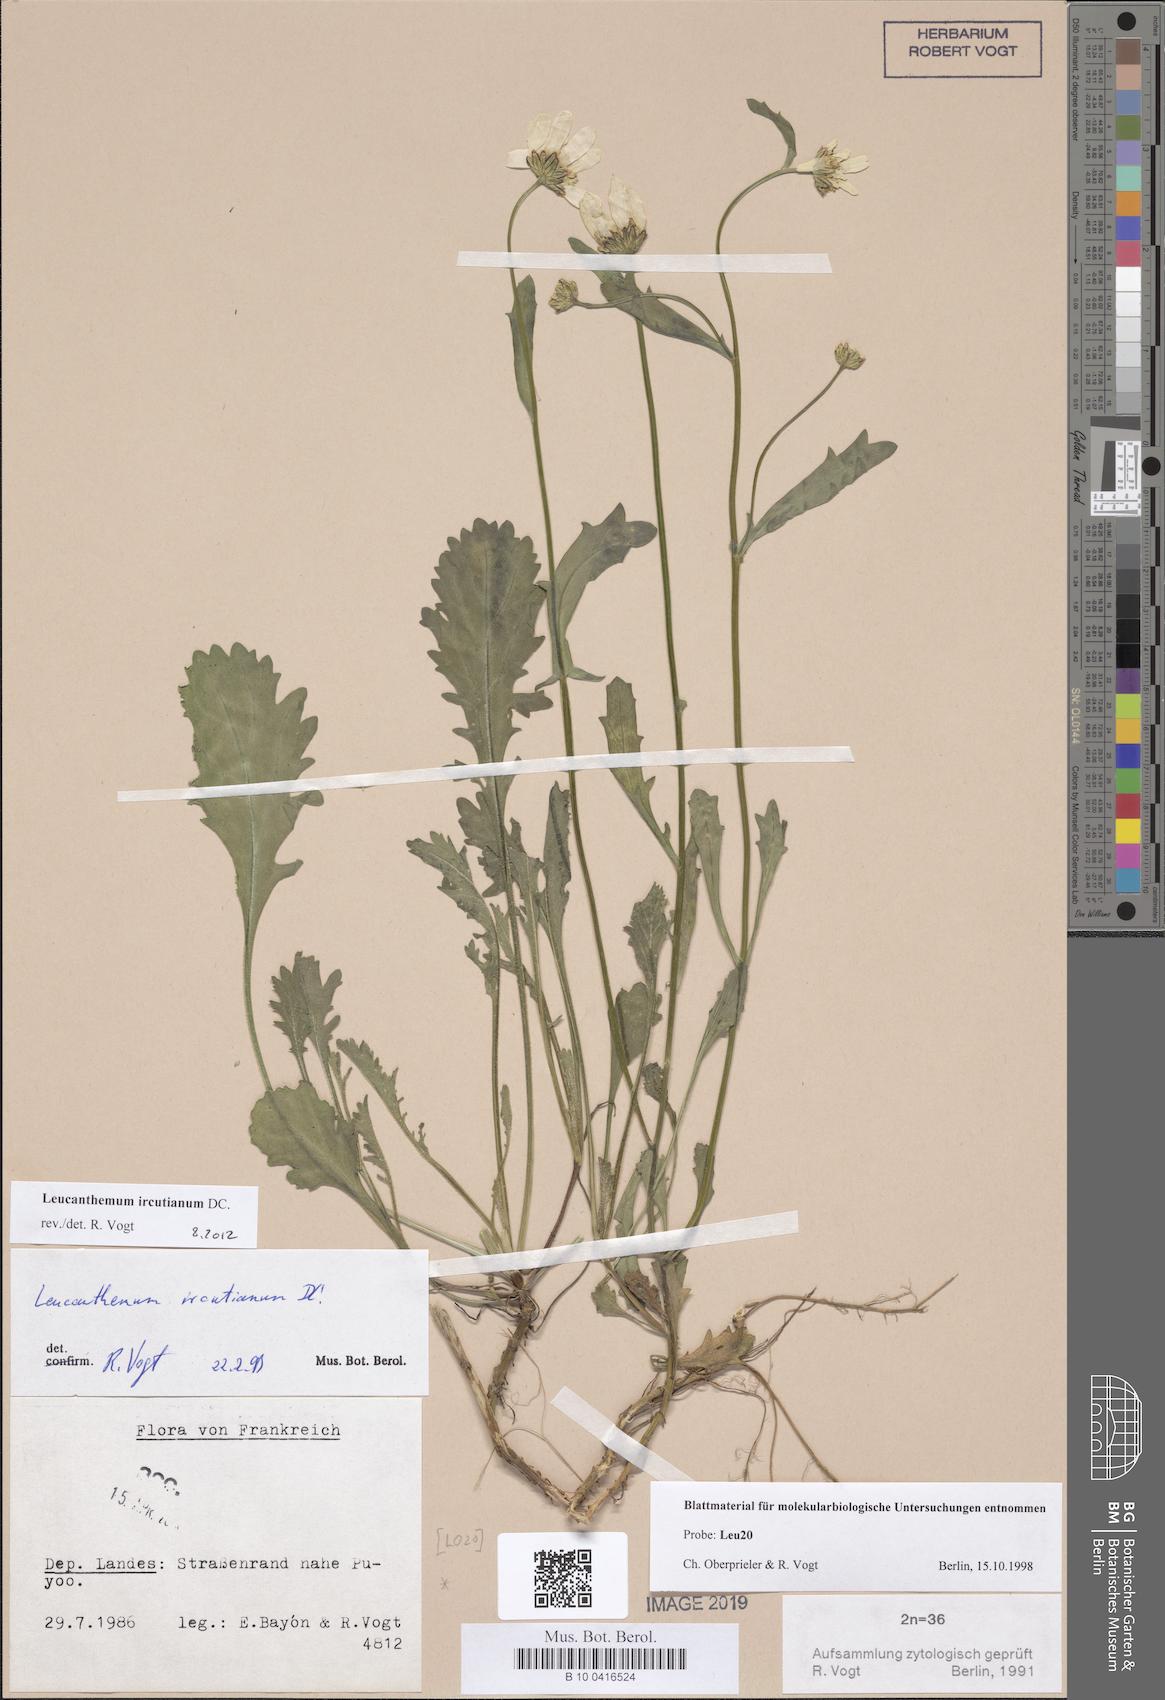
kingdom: Plantae
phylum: Tracheophyta
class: Magnoliopsida
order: Asterales
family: Asteraceae
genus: Leucanthemum
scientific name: Leucanthemum ircutianum
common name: Daisy
